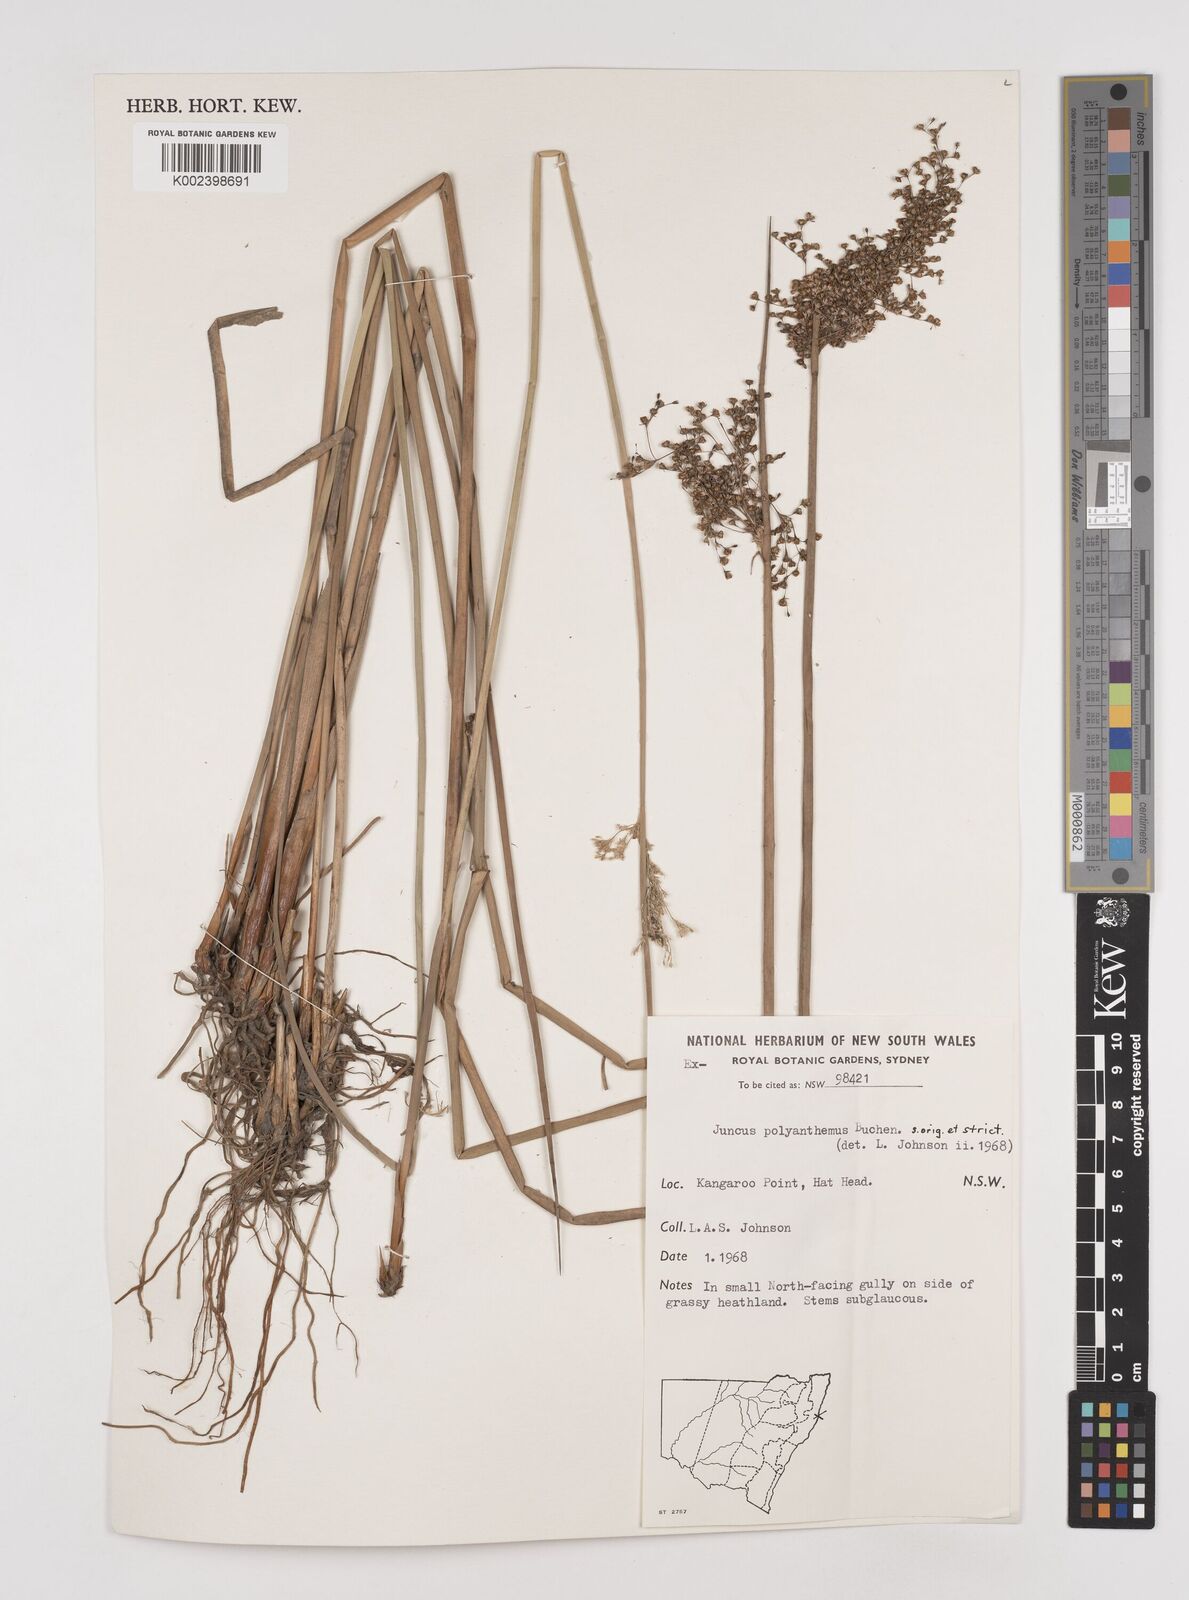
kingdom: Plantae
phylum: Tracheophyta
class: Liliopsida
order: Poales
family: Juncaceae
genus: Juncus
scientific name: Juncus
